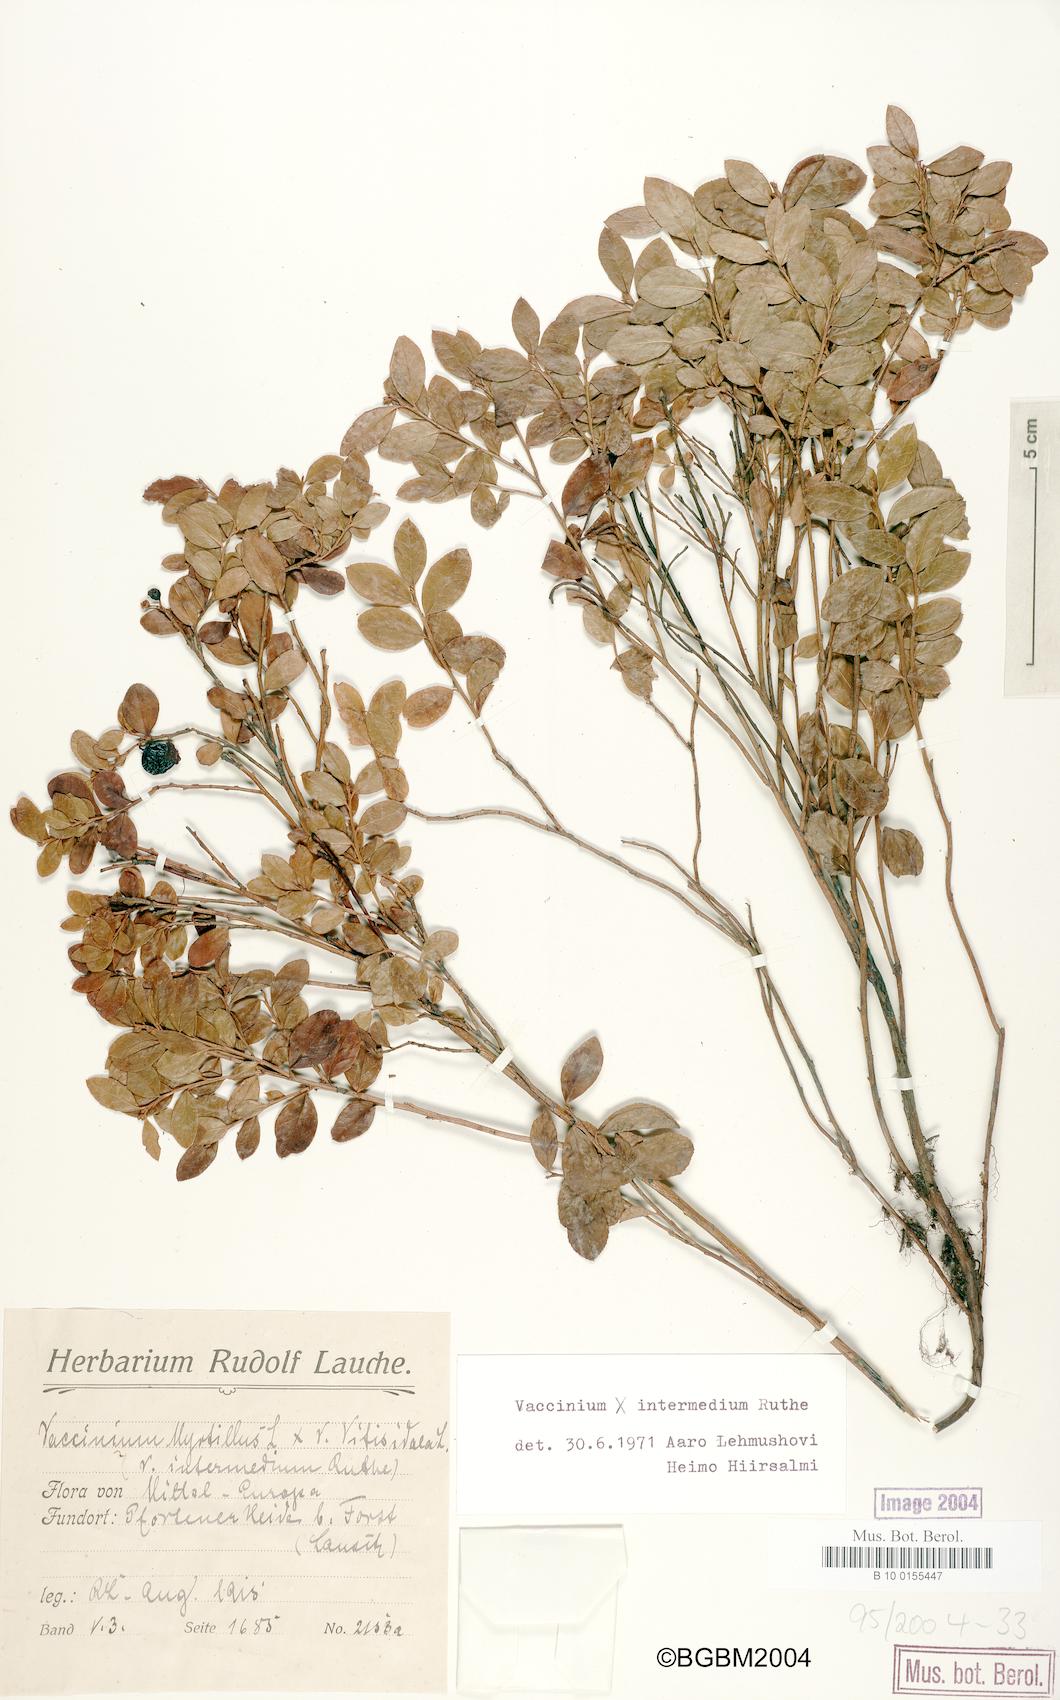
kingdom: Plantae
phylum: Tracheophyta
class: Magnoliopsida
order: Ericales
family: Ericaceae
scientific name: Ericaceae
